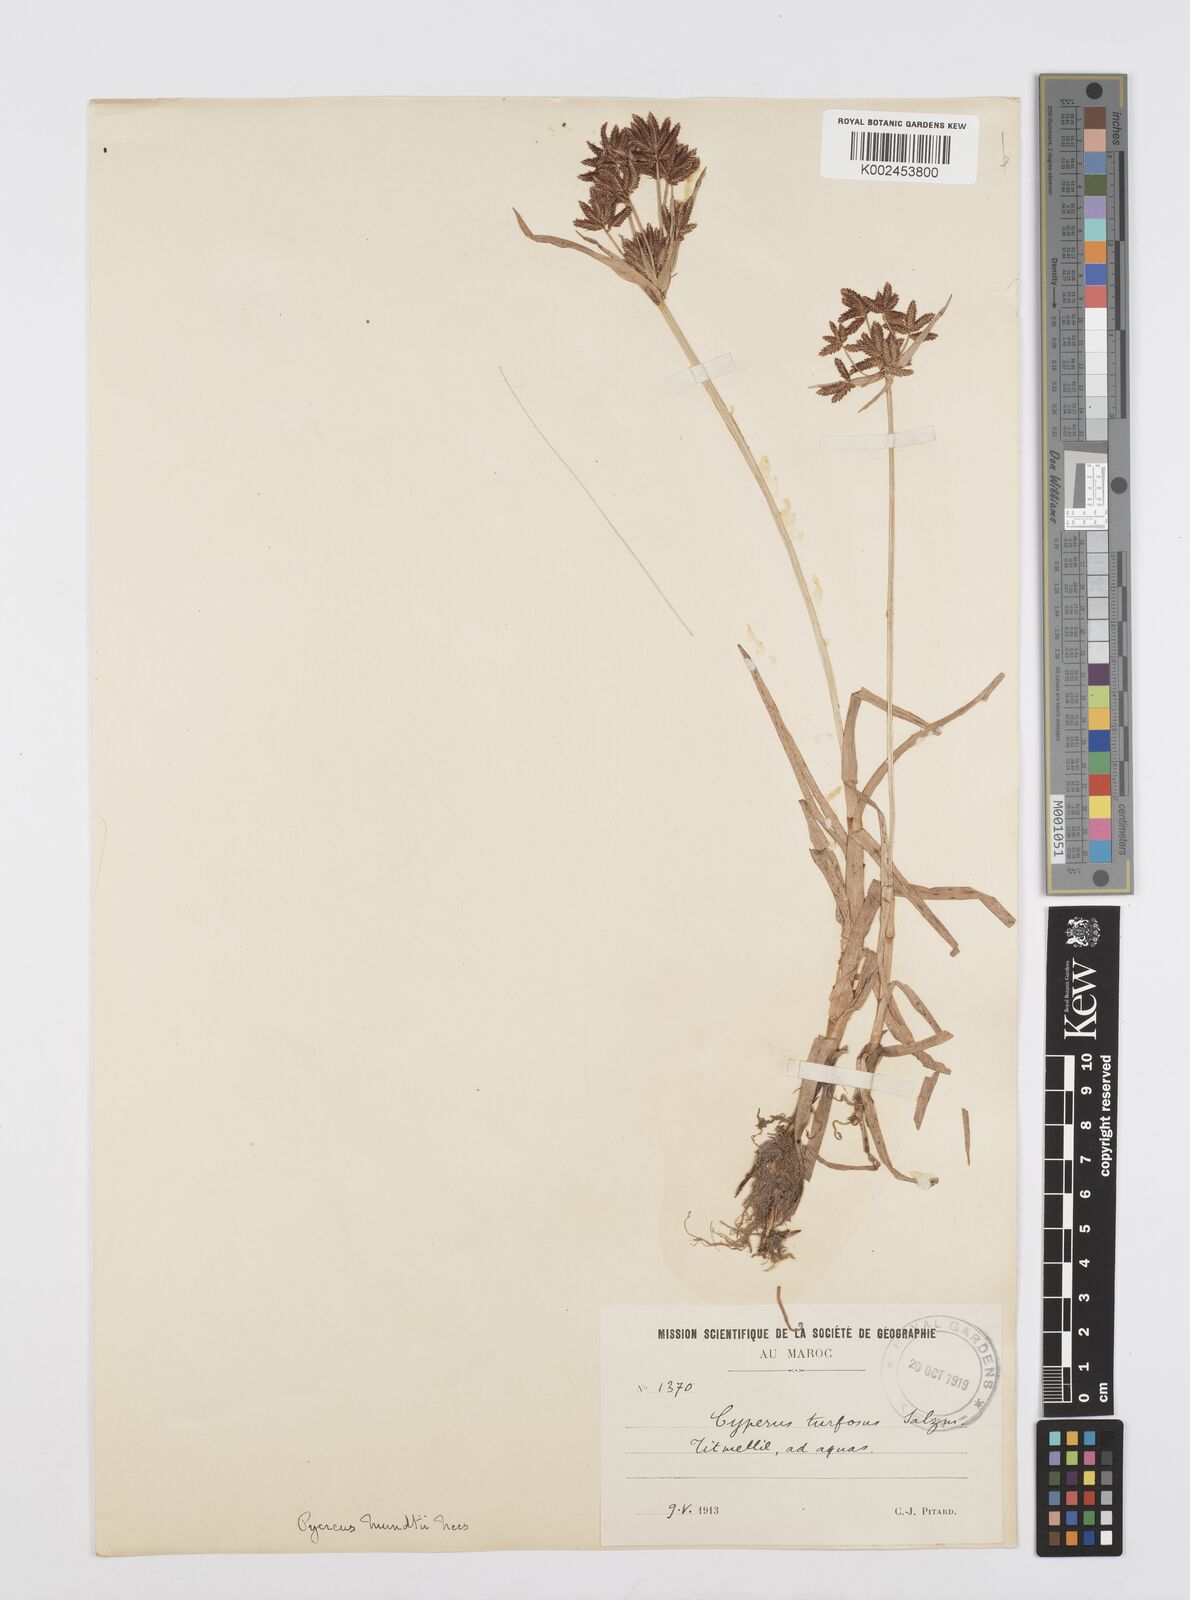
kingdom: Plantae
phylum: Tracheophyta
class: Liliopsida
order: Poales
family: Cyperaceae
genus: Cyperus
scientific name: Cyperus mundii
